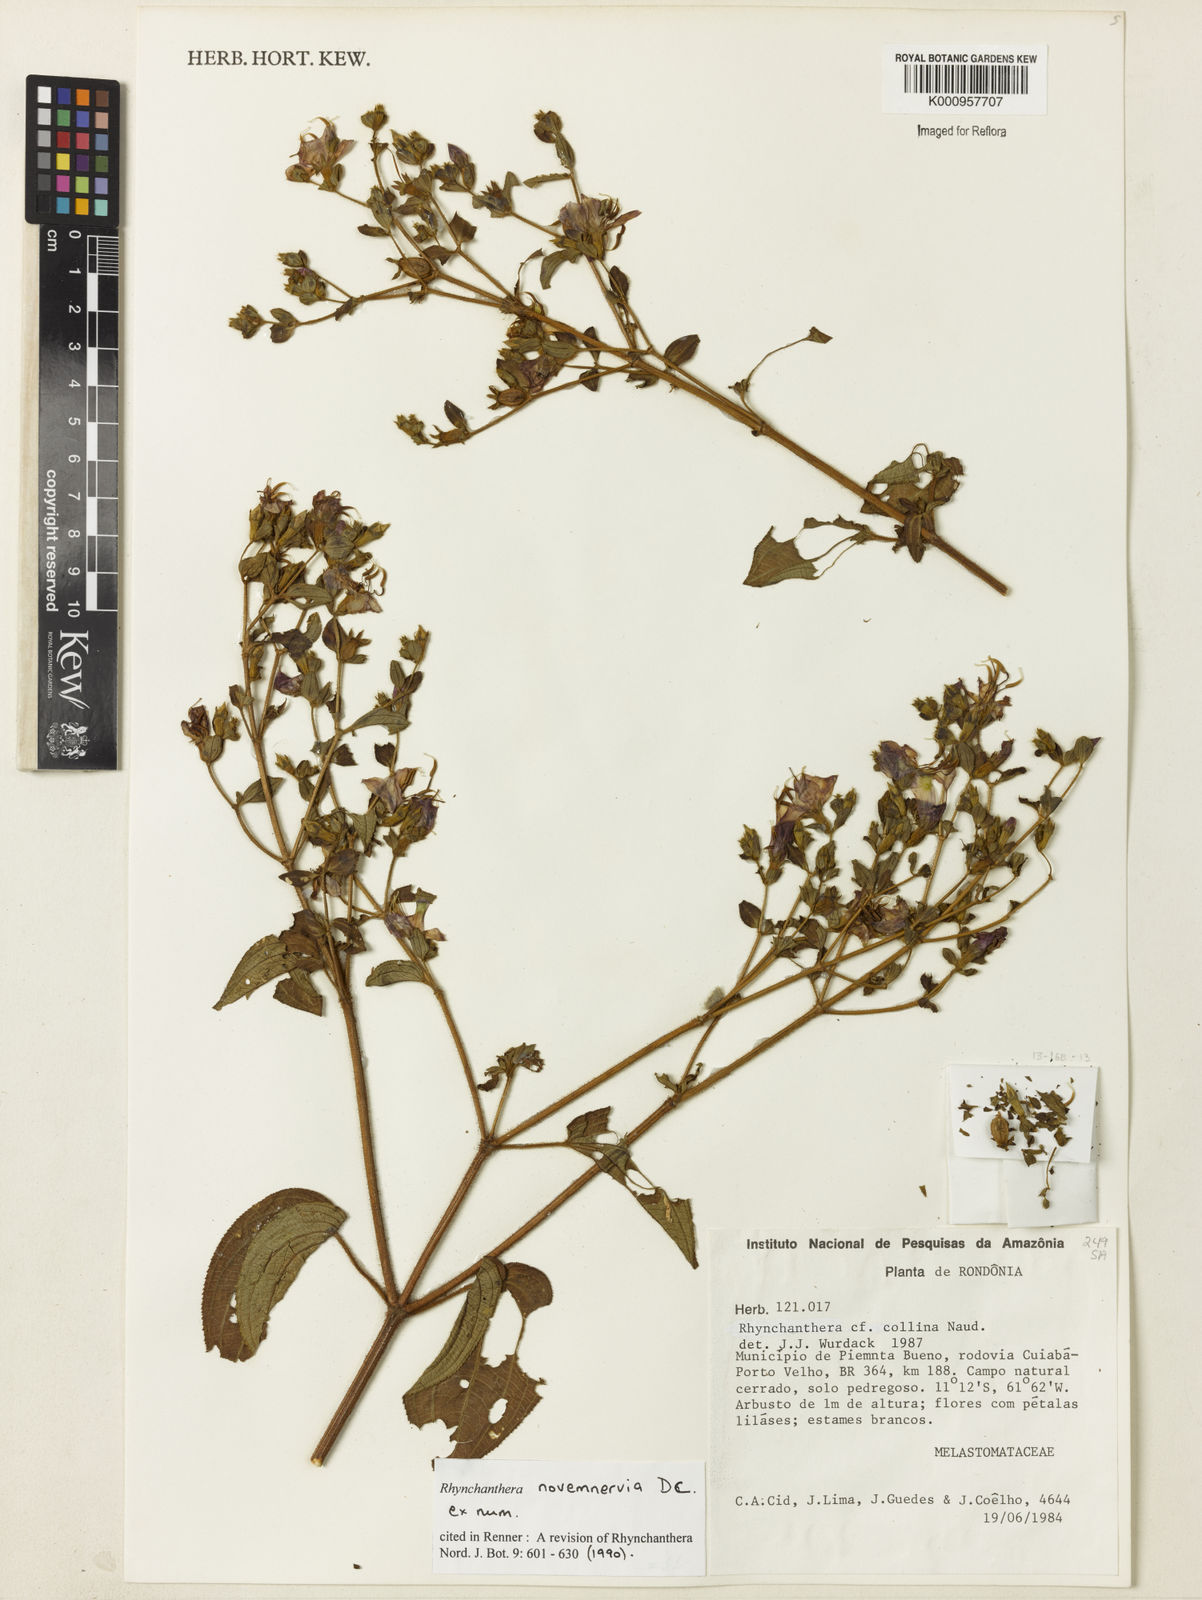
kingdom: Plantae
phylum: Tracheophyta
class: Magnoliopsida
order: Myrtales
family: Melastomataceae
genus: Rhynchanthera
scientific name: Rhynchanthera novemnervia
